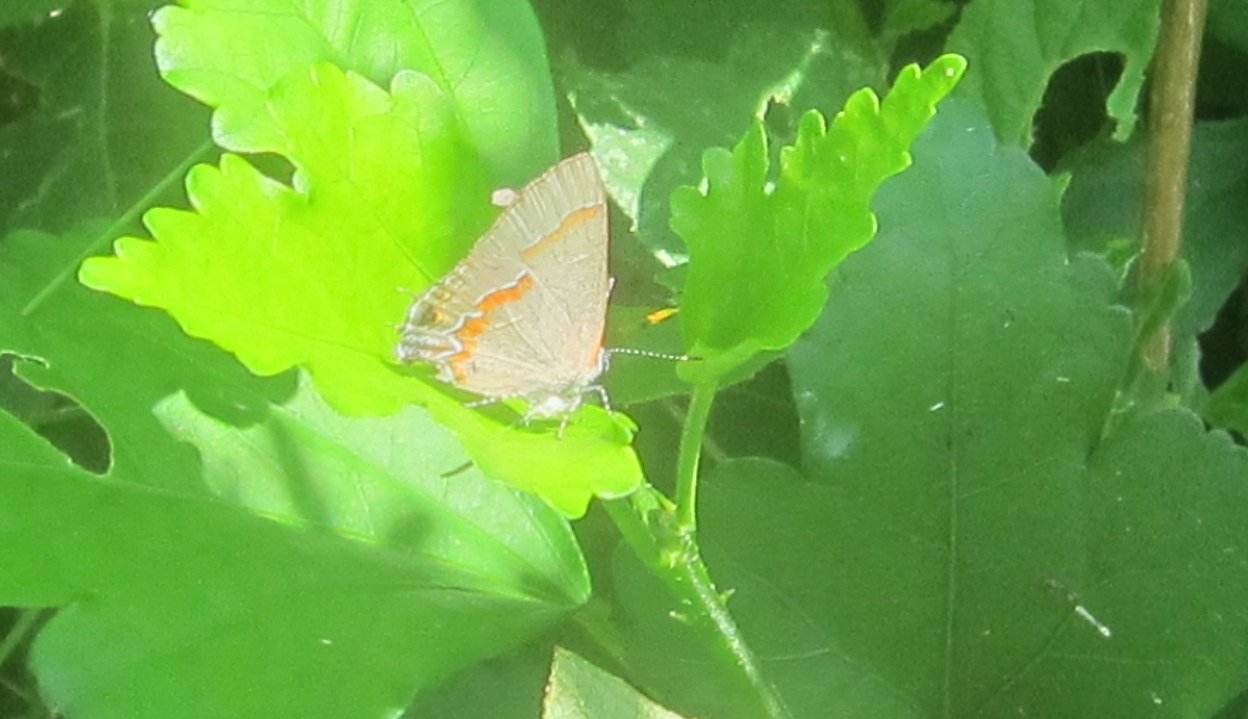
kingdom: Animalia
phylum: Arthropoda
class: Insecta
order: Lepidoptera
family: Lycaenidae
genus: Calycopis
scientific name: Calycopis cecrops
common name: Red-banded Hairstreak
